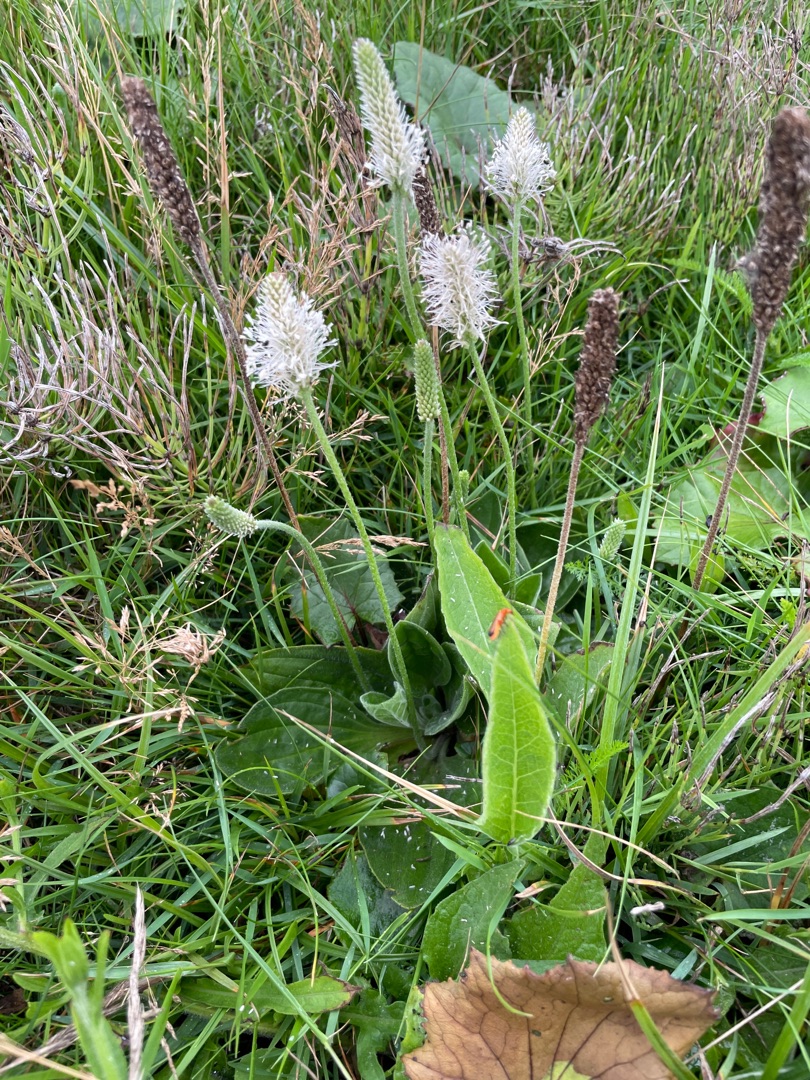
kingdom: Plantae
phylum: Tracheophyta
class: Magnoliopsida
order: Lamiales
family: Plantaginaceae
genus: Plantago
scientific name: Plantago media
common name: Dunet vejbred
